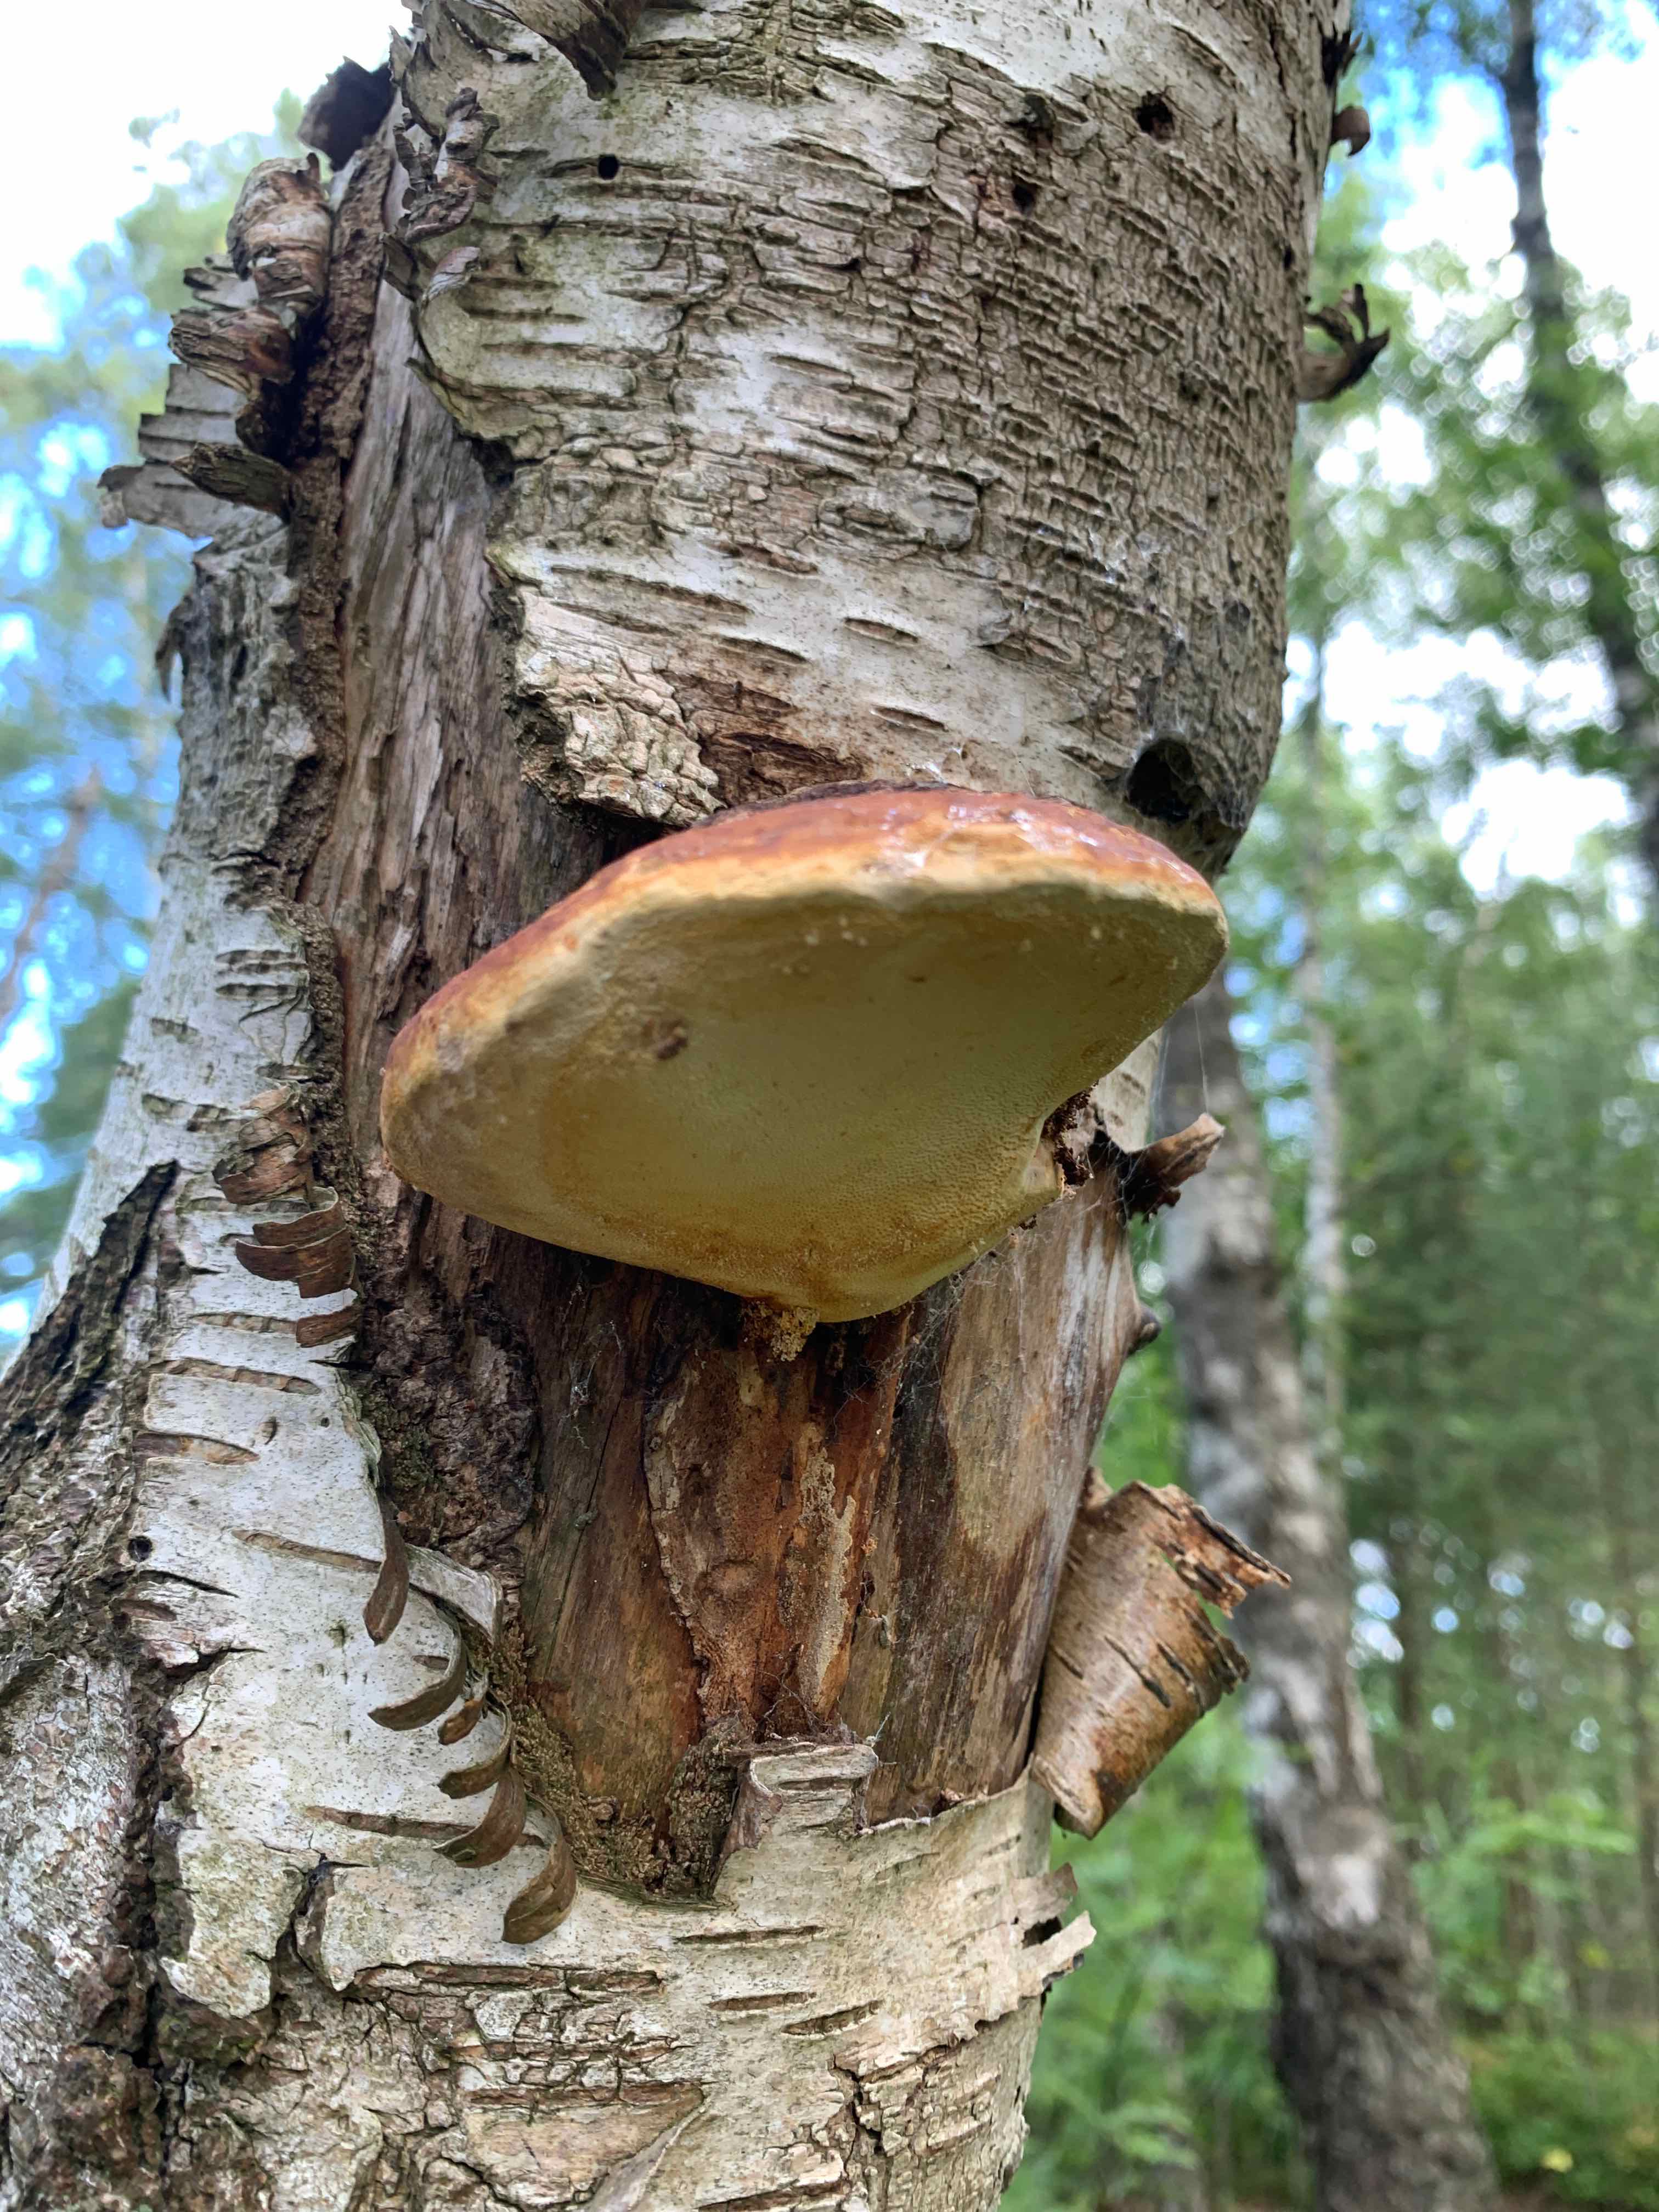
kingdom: Fungi
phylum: Basidiomycota
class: Agaricomycetes
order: Polyporales
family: Fomitopsidaceae
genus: Fomitopsis
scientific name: Fomitopsis pinicola
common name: randbæltet hovporesvamp
